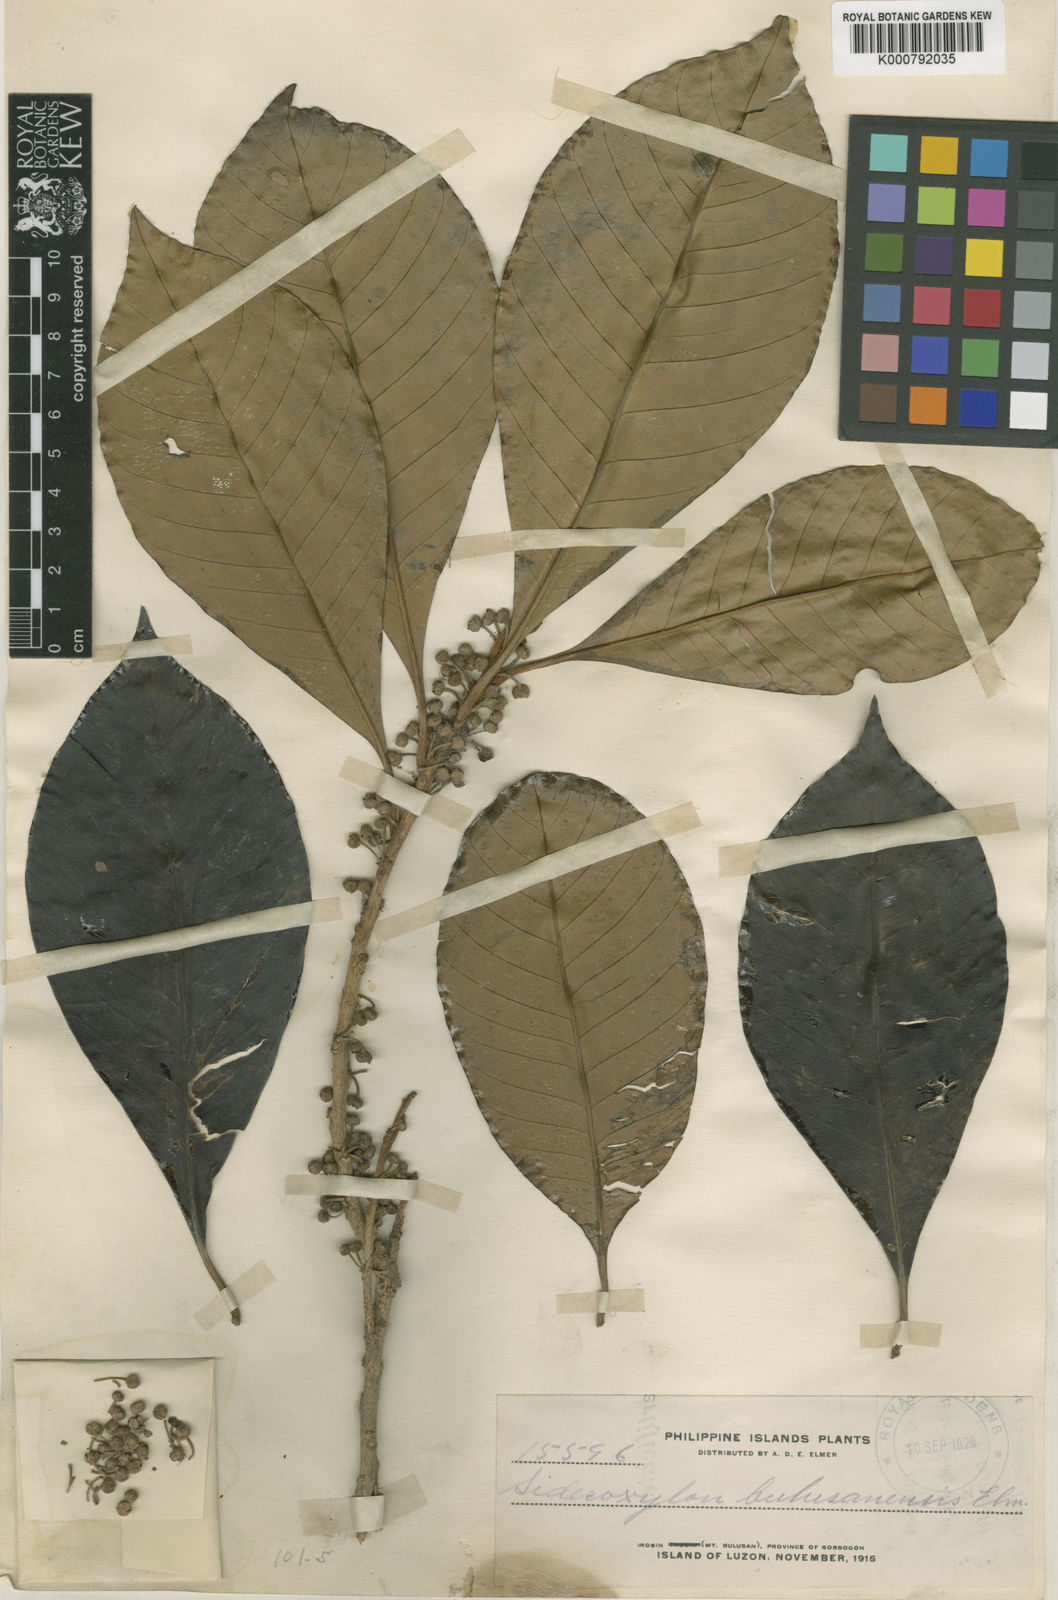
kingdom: Plantae
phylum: Tracheophyta
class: Magnoliopsida
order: Ericales
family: Sapotaceae
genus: Planchonella
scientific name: Planchonella velutina
